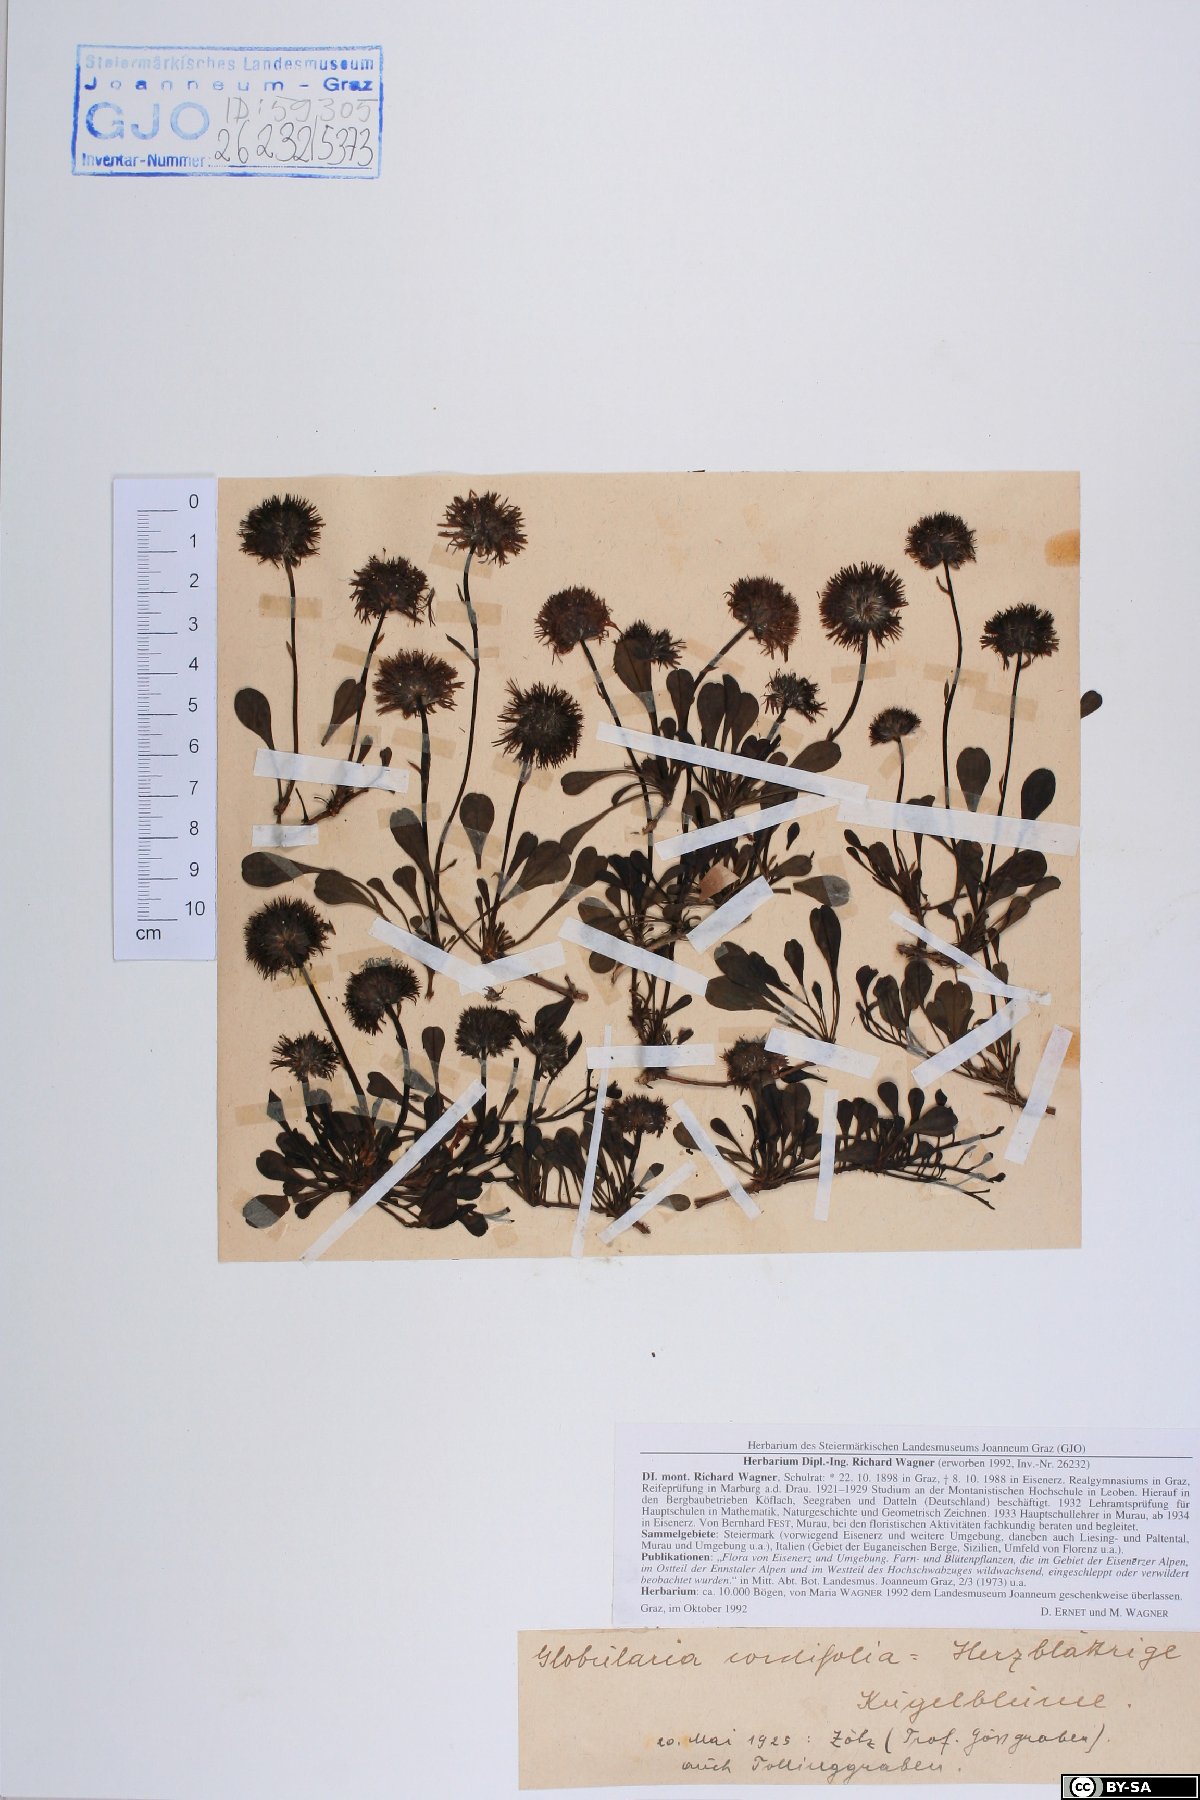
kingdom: Plantae
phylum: Tracheophyta
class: Magnoliopsida
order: Lamiales
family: Plantaginaceae
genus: Globularia
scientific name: Globularia cordifolia
